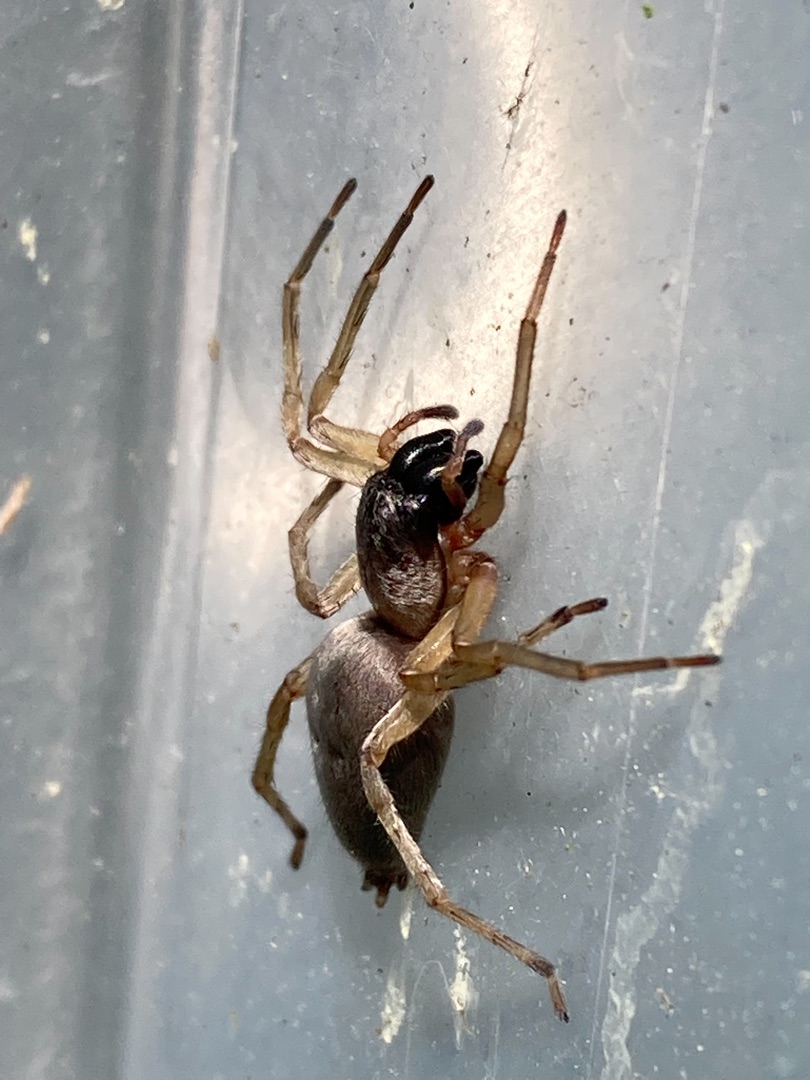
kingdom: Animalia
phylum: Arthropoda
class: Arachnida
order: Araneae
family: Clubionidae
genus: Clubiona
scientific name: Clubiona
